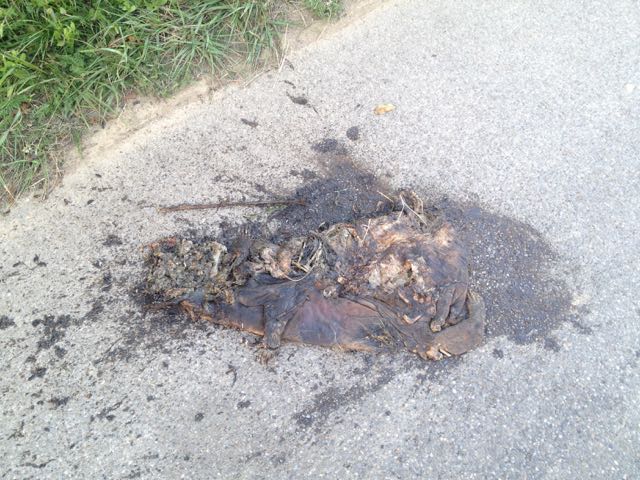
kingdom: Animalia
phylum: Chordata
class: Mammalia
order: Carnivora
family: Mustelidae
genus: Meles
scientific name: Meles meles
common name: Eurasian badger
